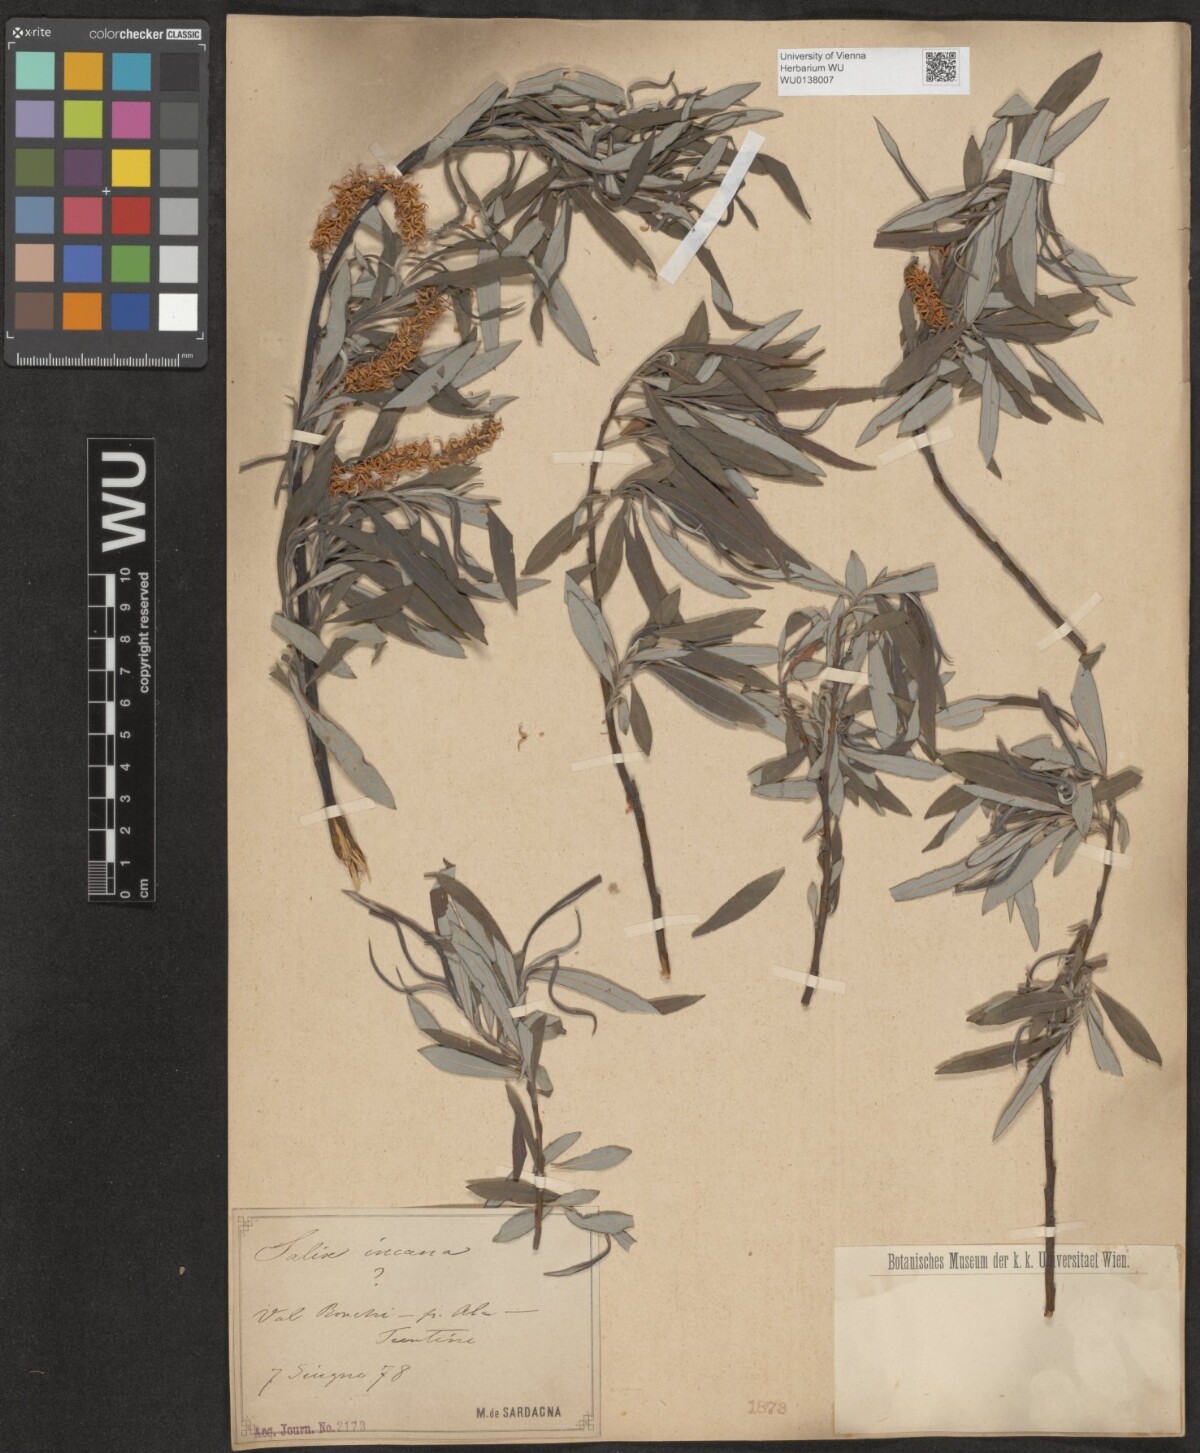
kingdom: Plantae
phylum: Tracheophyta
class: Magnoliopsida
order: Malpighiales
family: Salicaceae
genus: Salix
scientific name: Salix eleagnos
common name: Elaeagnus willow
